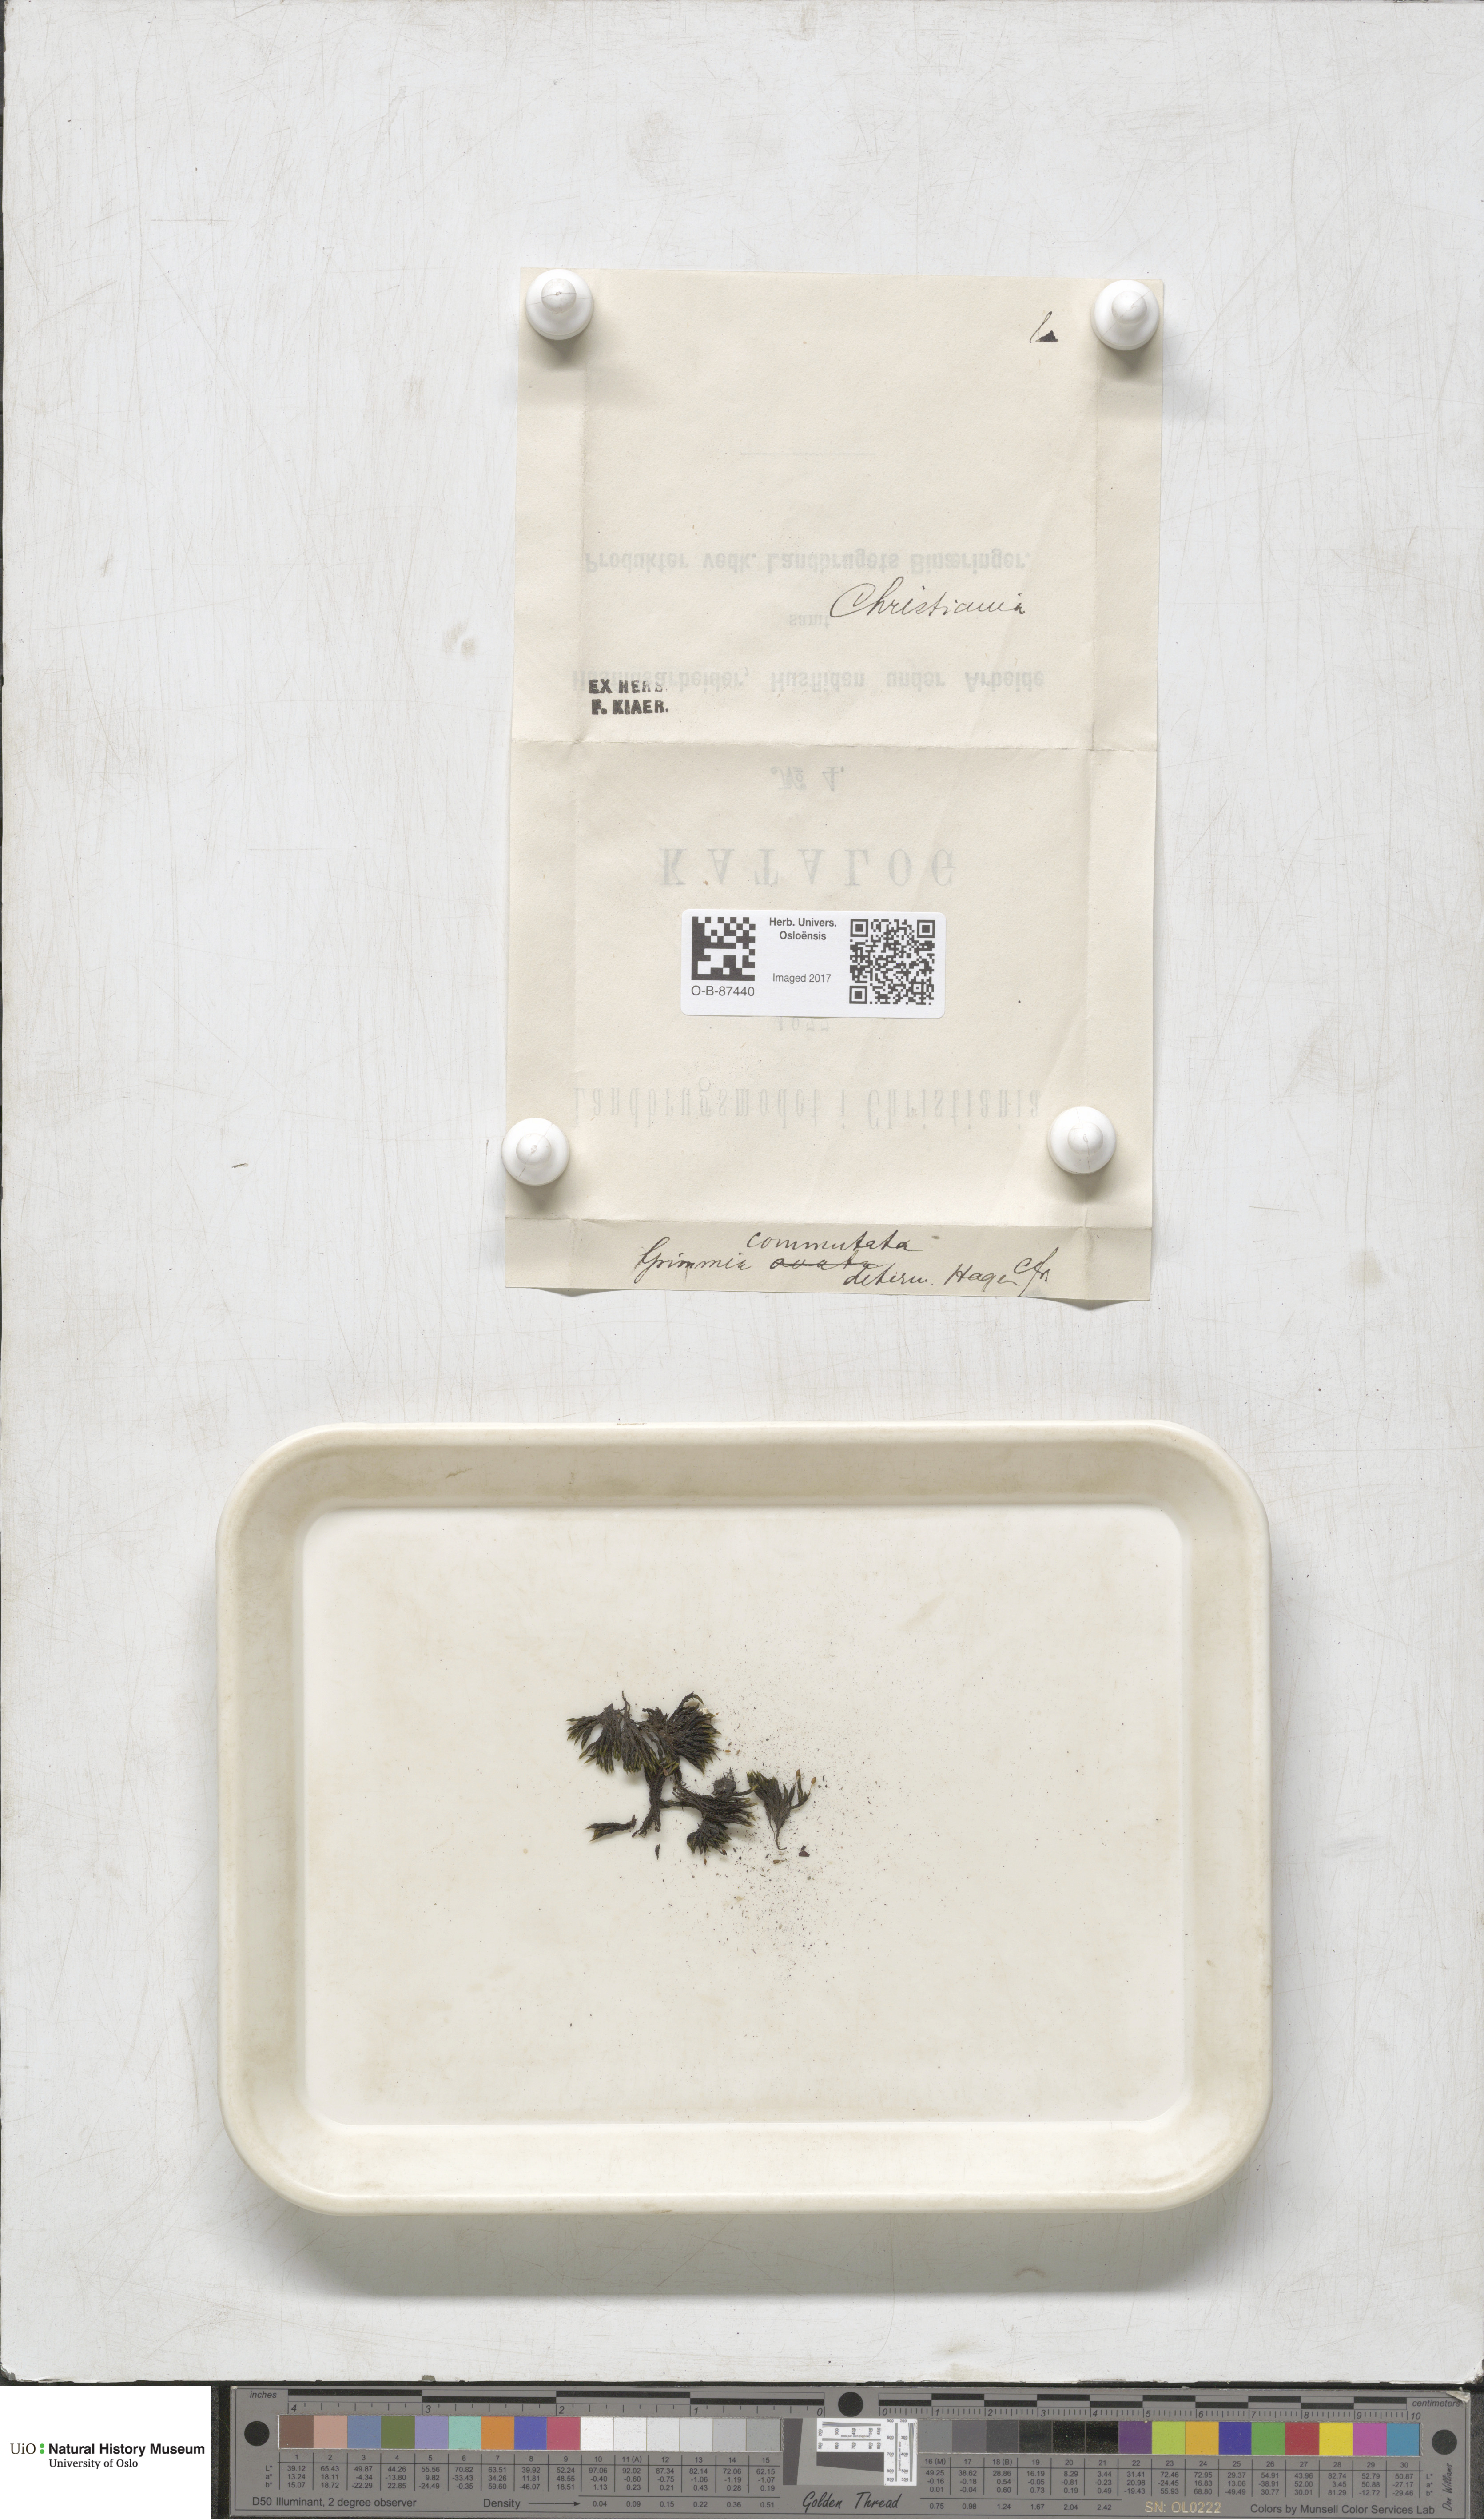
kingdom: Plantae
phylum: Bryophyta
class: Bryopsida
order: Grimmiales
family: Grimmiaceae
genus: Grimmia
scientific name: Grimmia ovalis
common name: Oval grimmia
